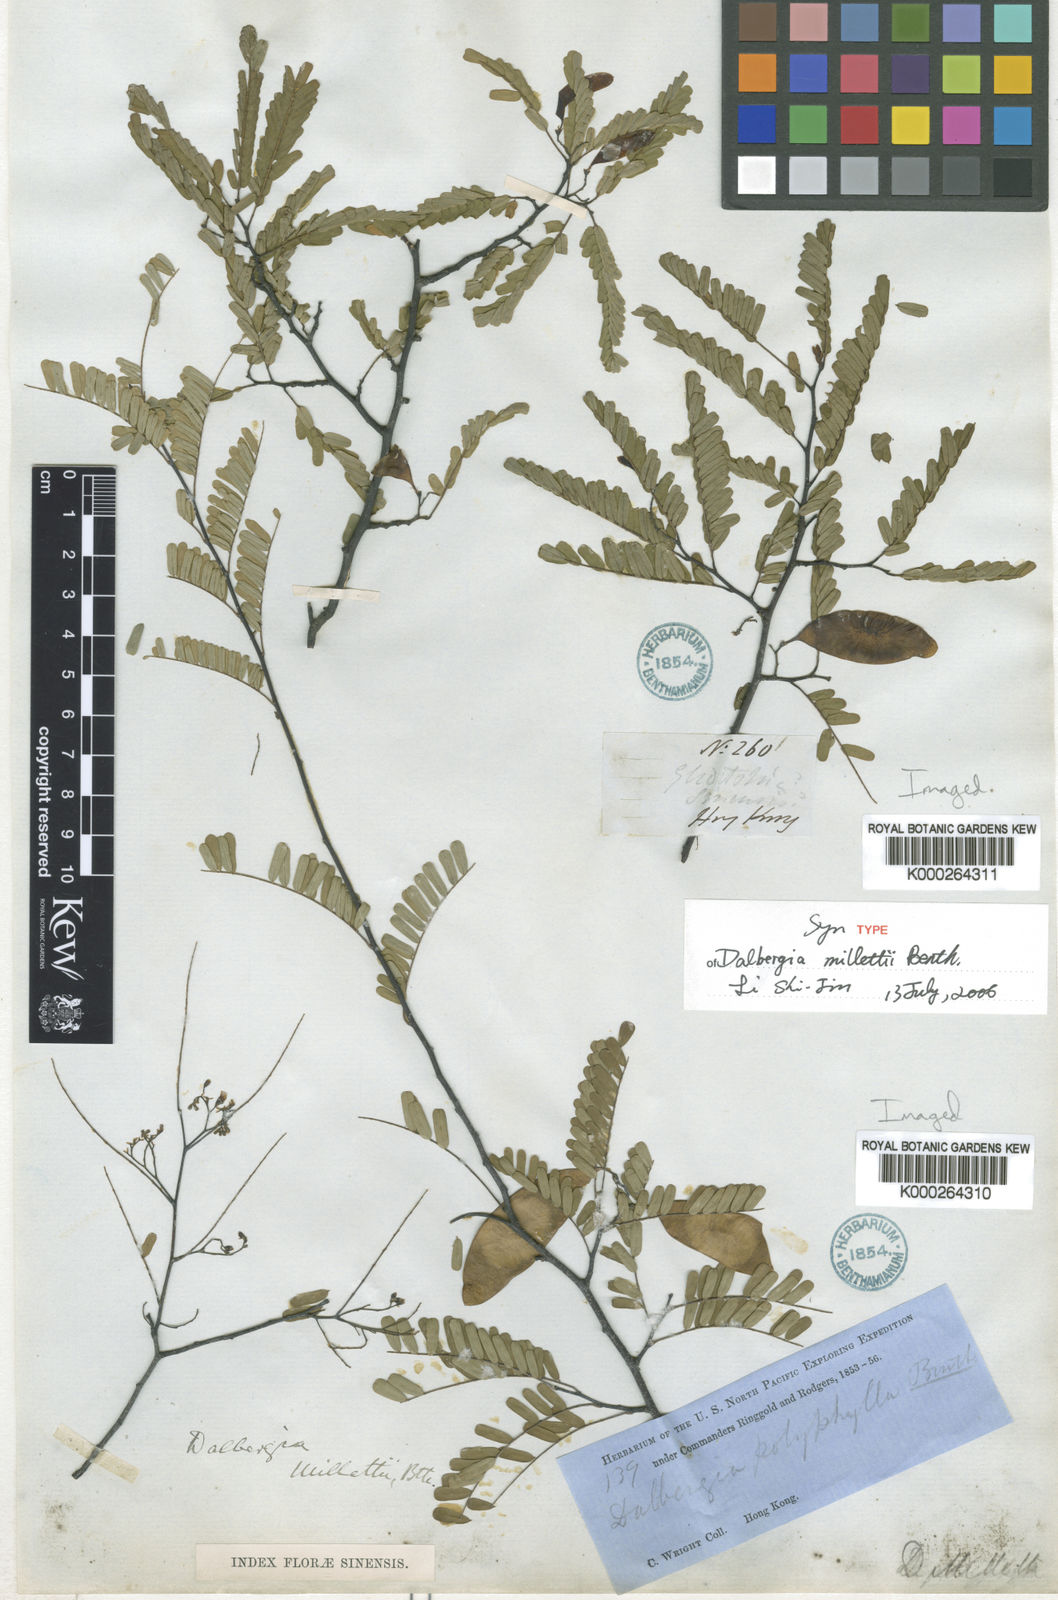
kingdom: Plantae
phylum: Tracheophyta
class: Magnoliopsida
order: Fabales
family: Fabaceae
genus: Dalbergia
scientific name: Dalbergia millettii
